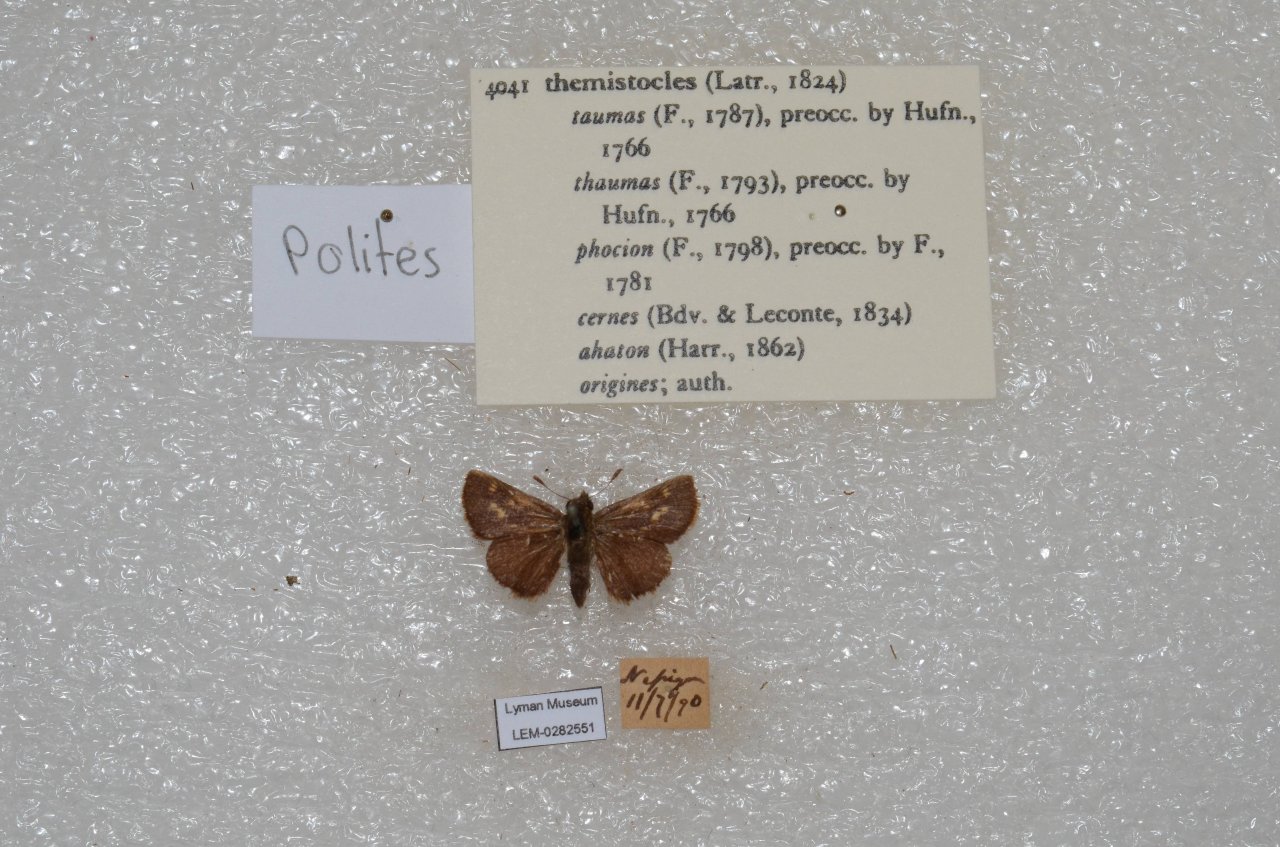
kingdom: Animalia
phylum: Arthropoda
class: Insecta
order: Lepidoptera
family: Hesperiidae
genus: Polites
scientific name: Polites themistocles
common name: Tawny-edged Skipper
